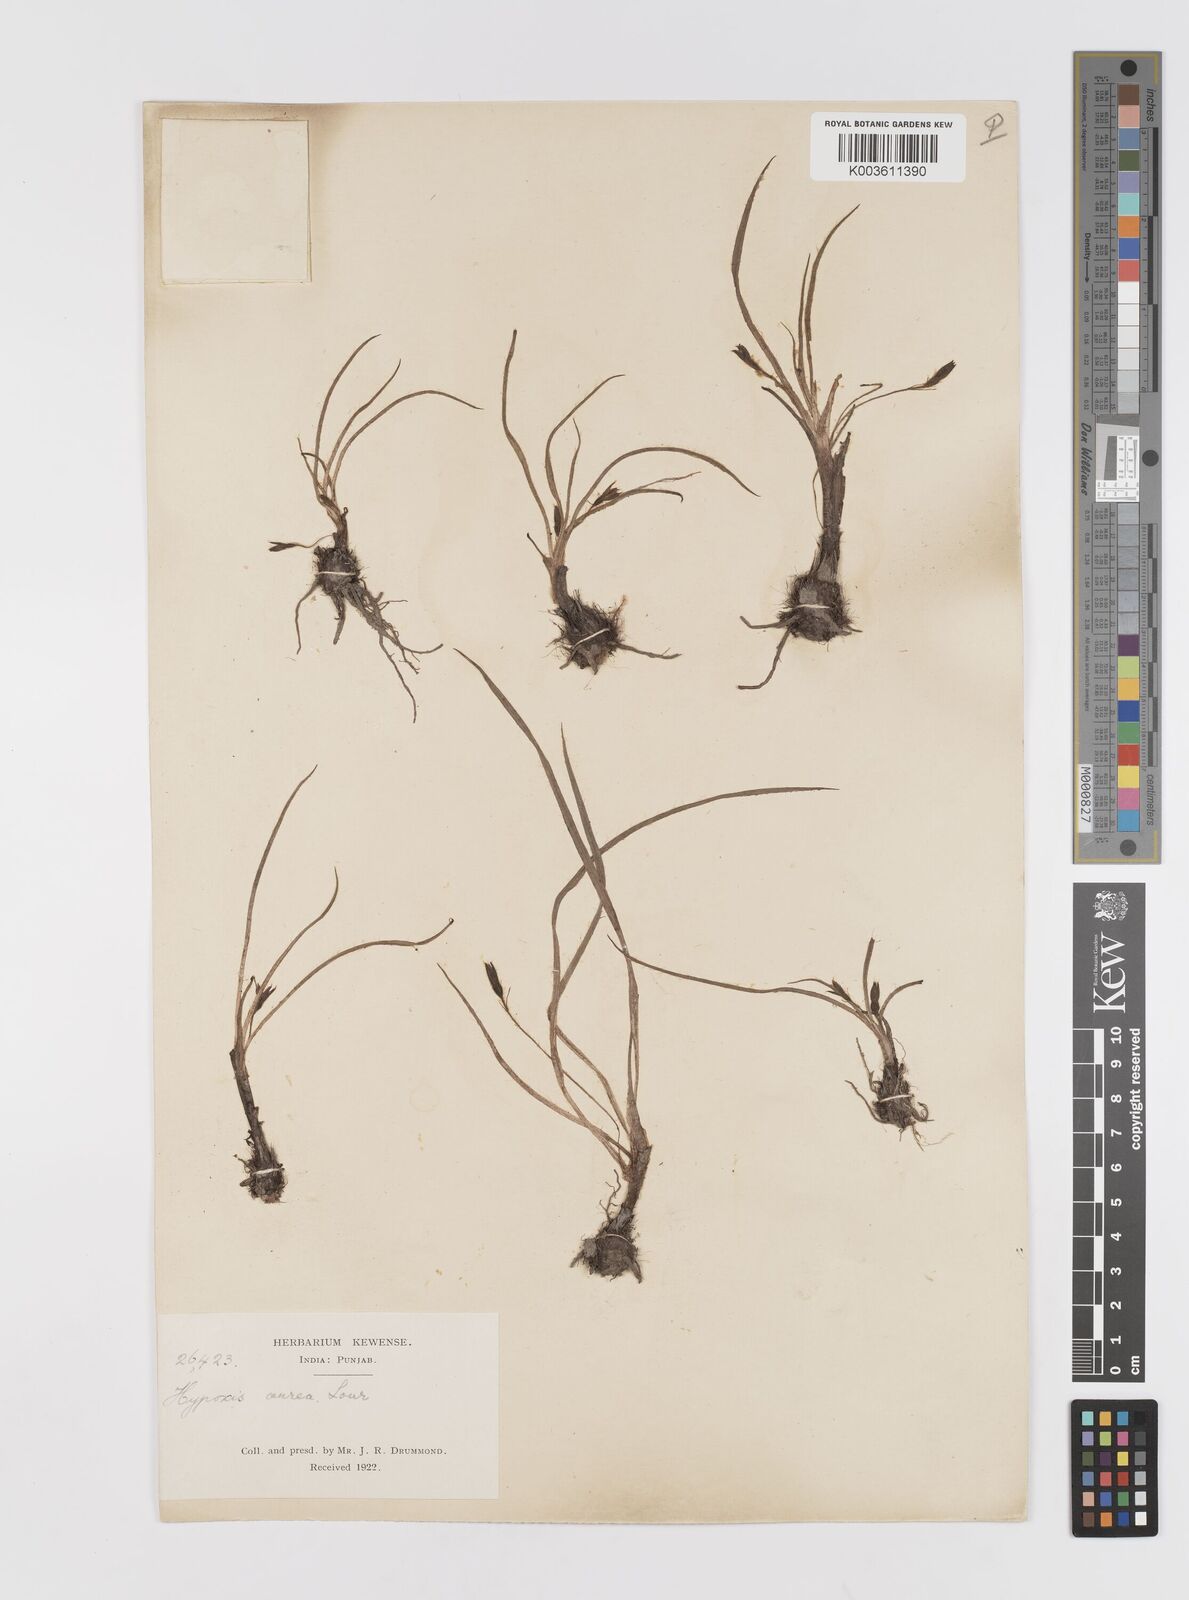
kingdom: Plantae
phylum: Tracheophyta
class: Liliopsida
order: Asparagales
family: Hypoxidaceae
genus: Hypoxis
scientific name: Hypoxis aurea
